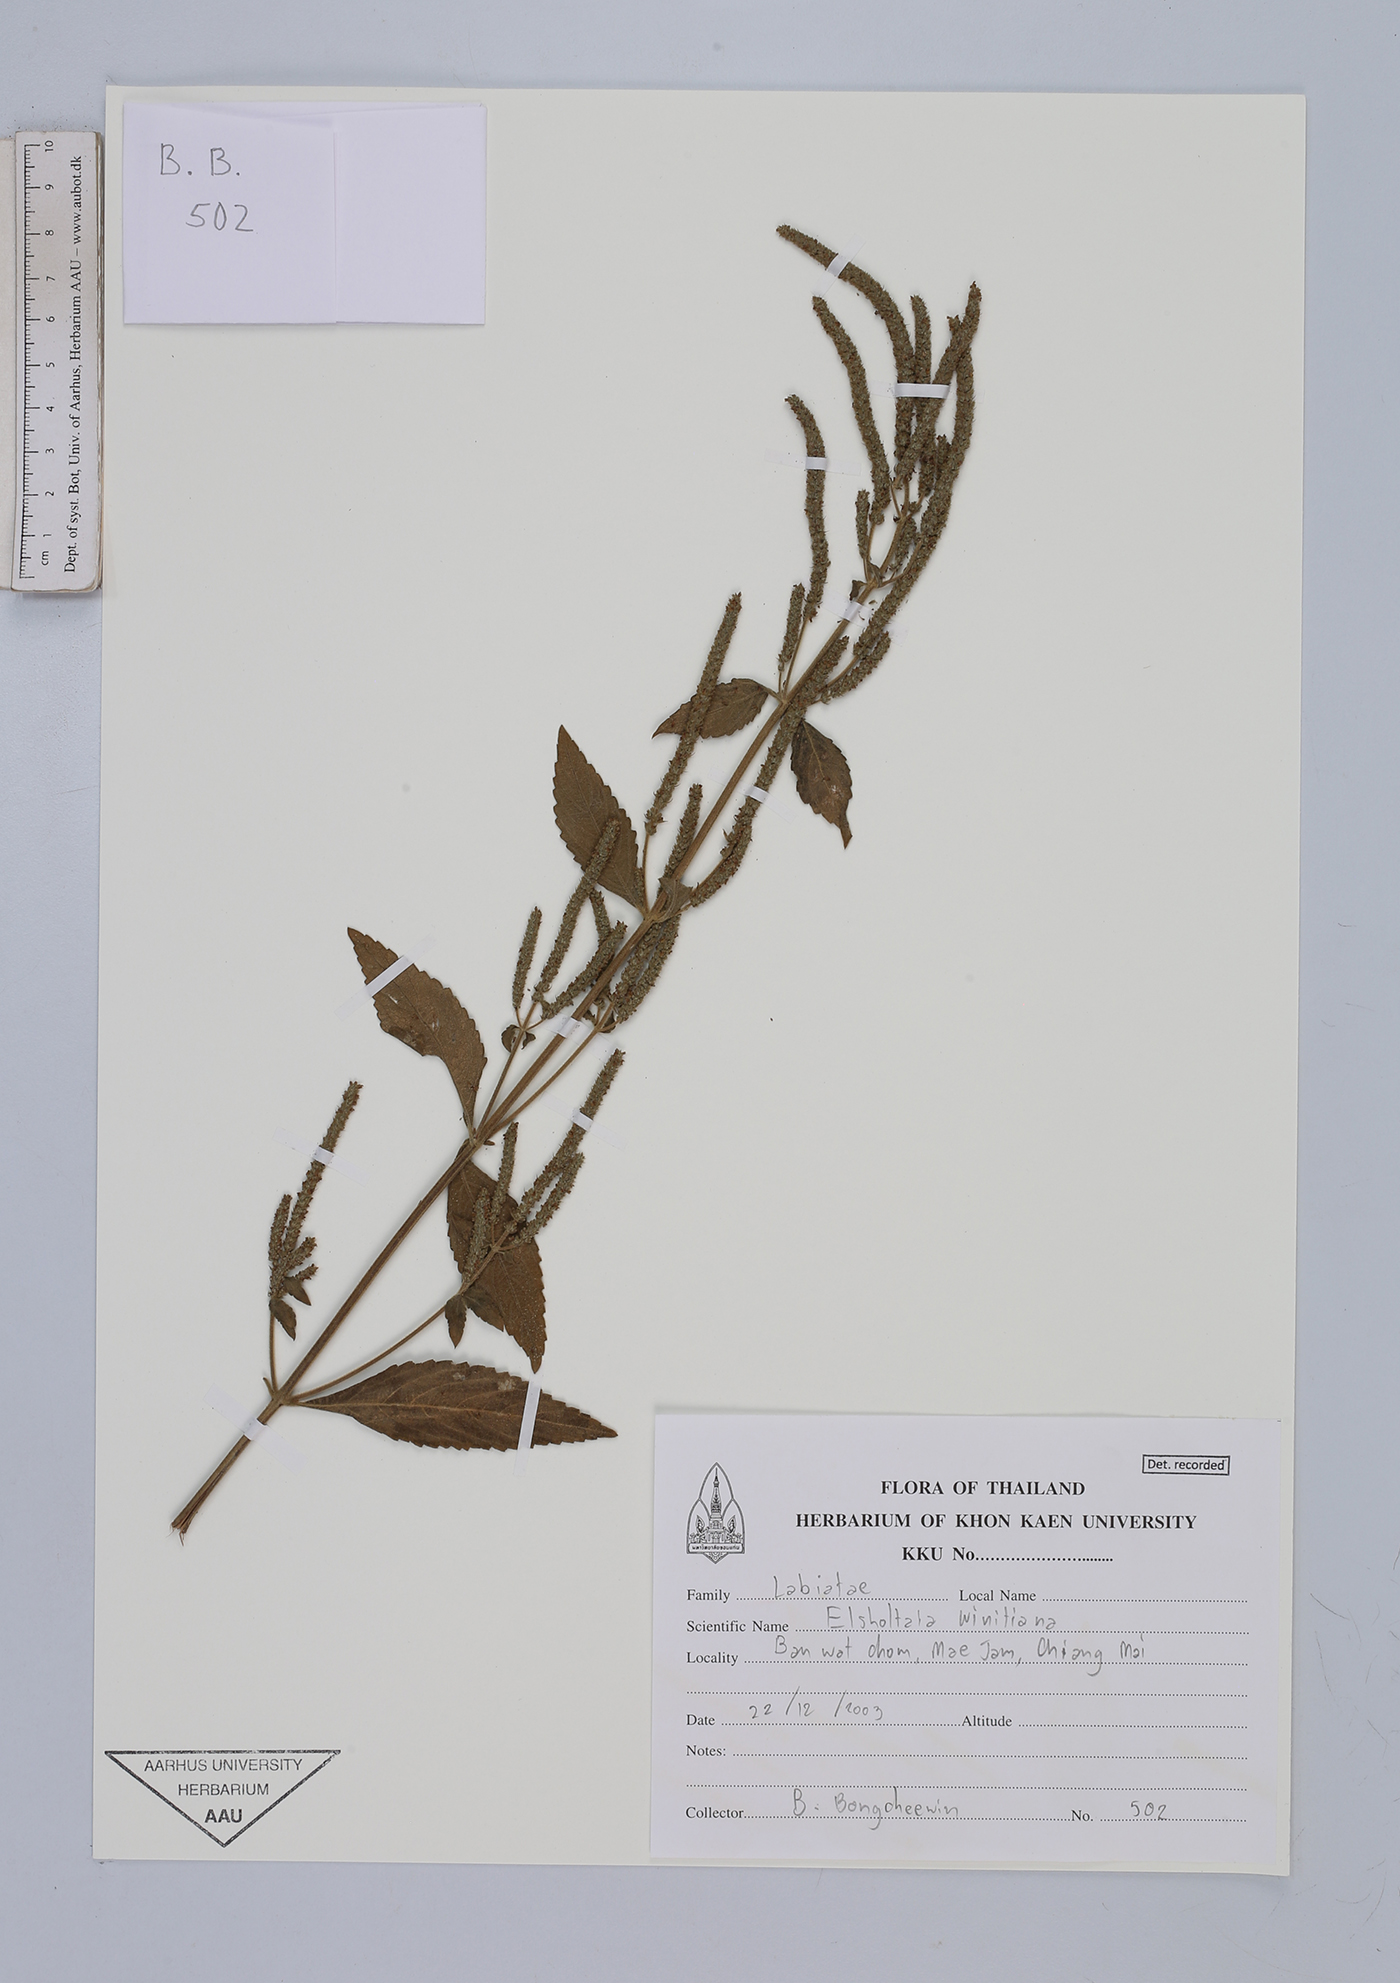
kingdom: Plantae
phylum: Tracheophyta
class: Magnoliopsida
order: Lamiales
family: Lamiaceae
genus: Elsholtzia
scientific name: Elsholtzia winitiana
